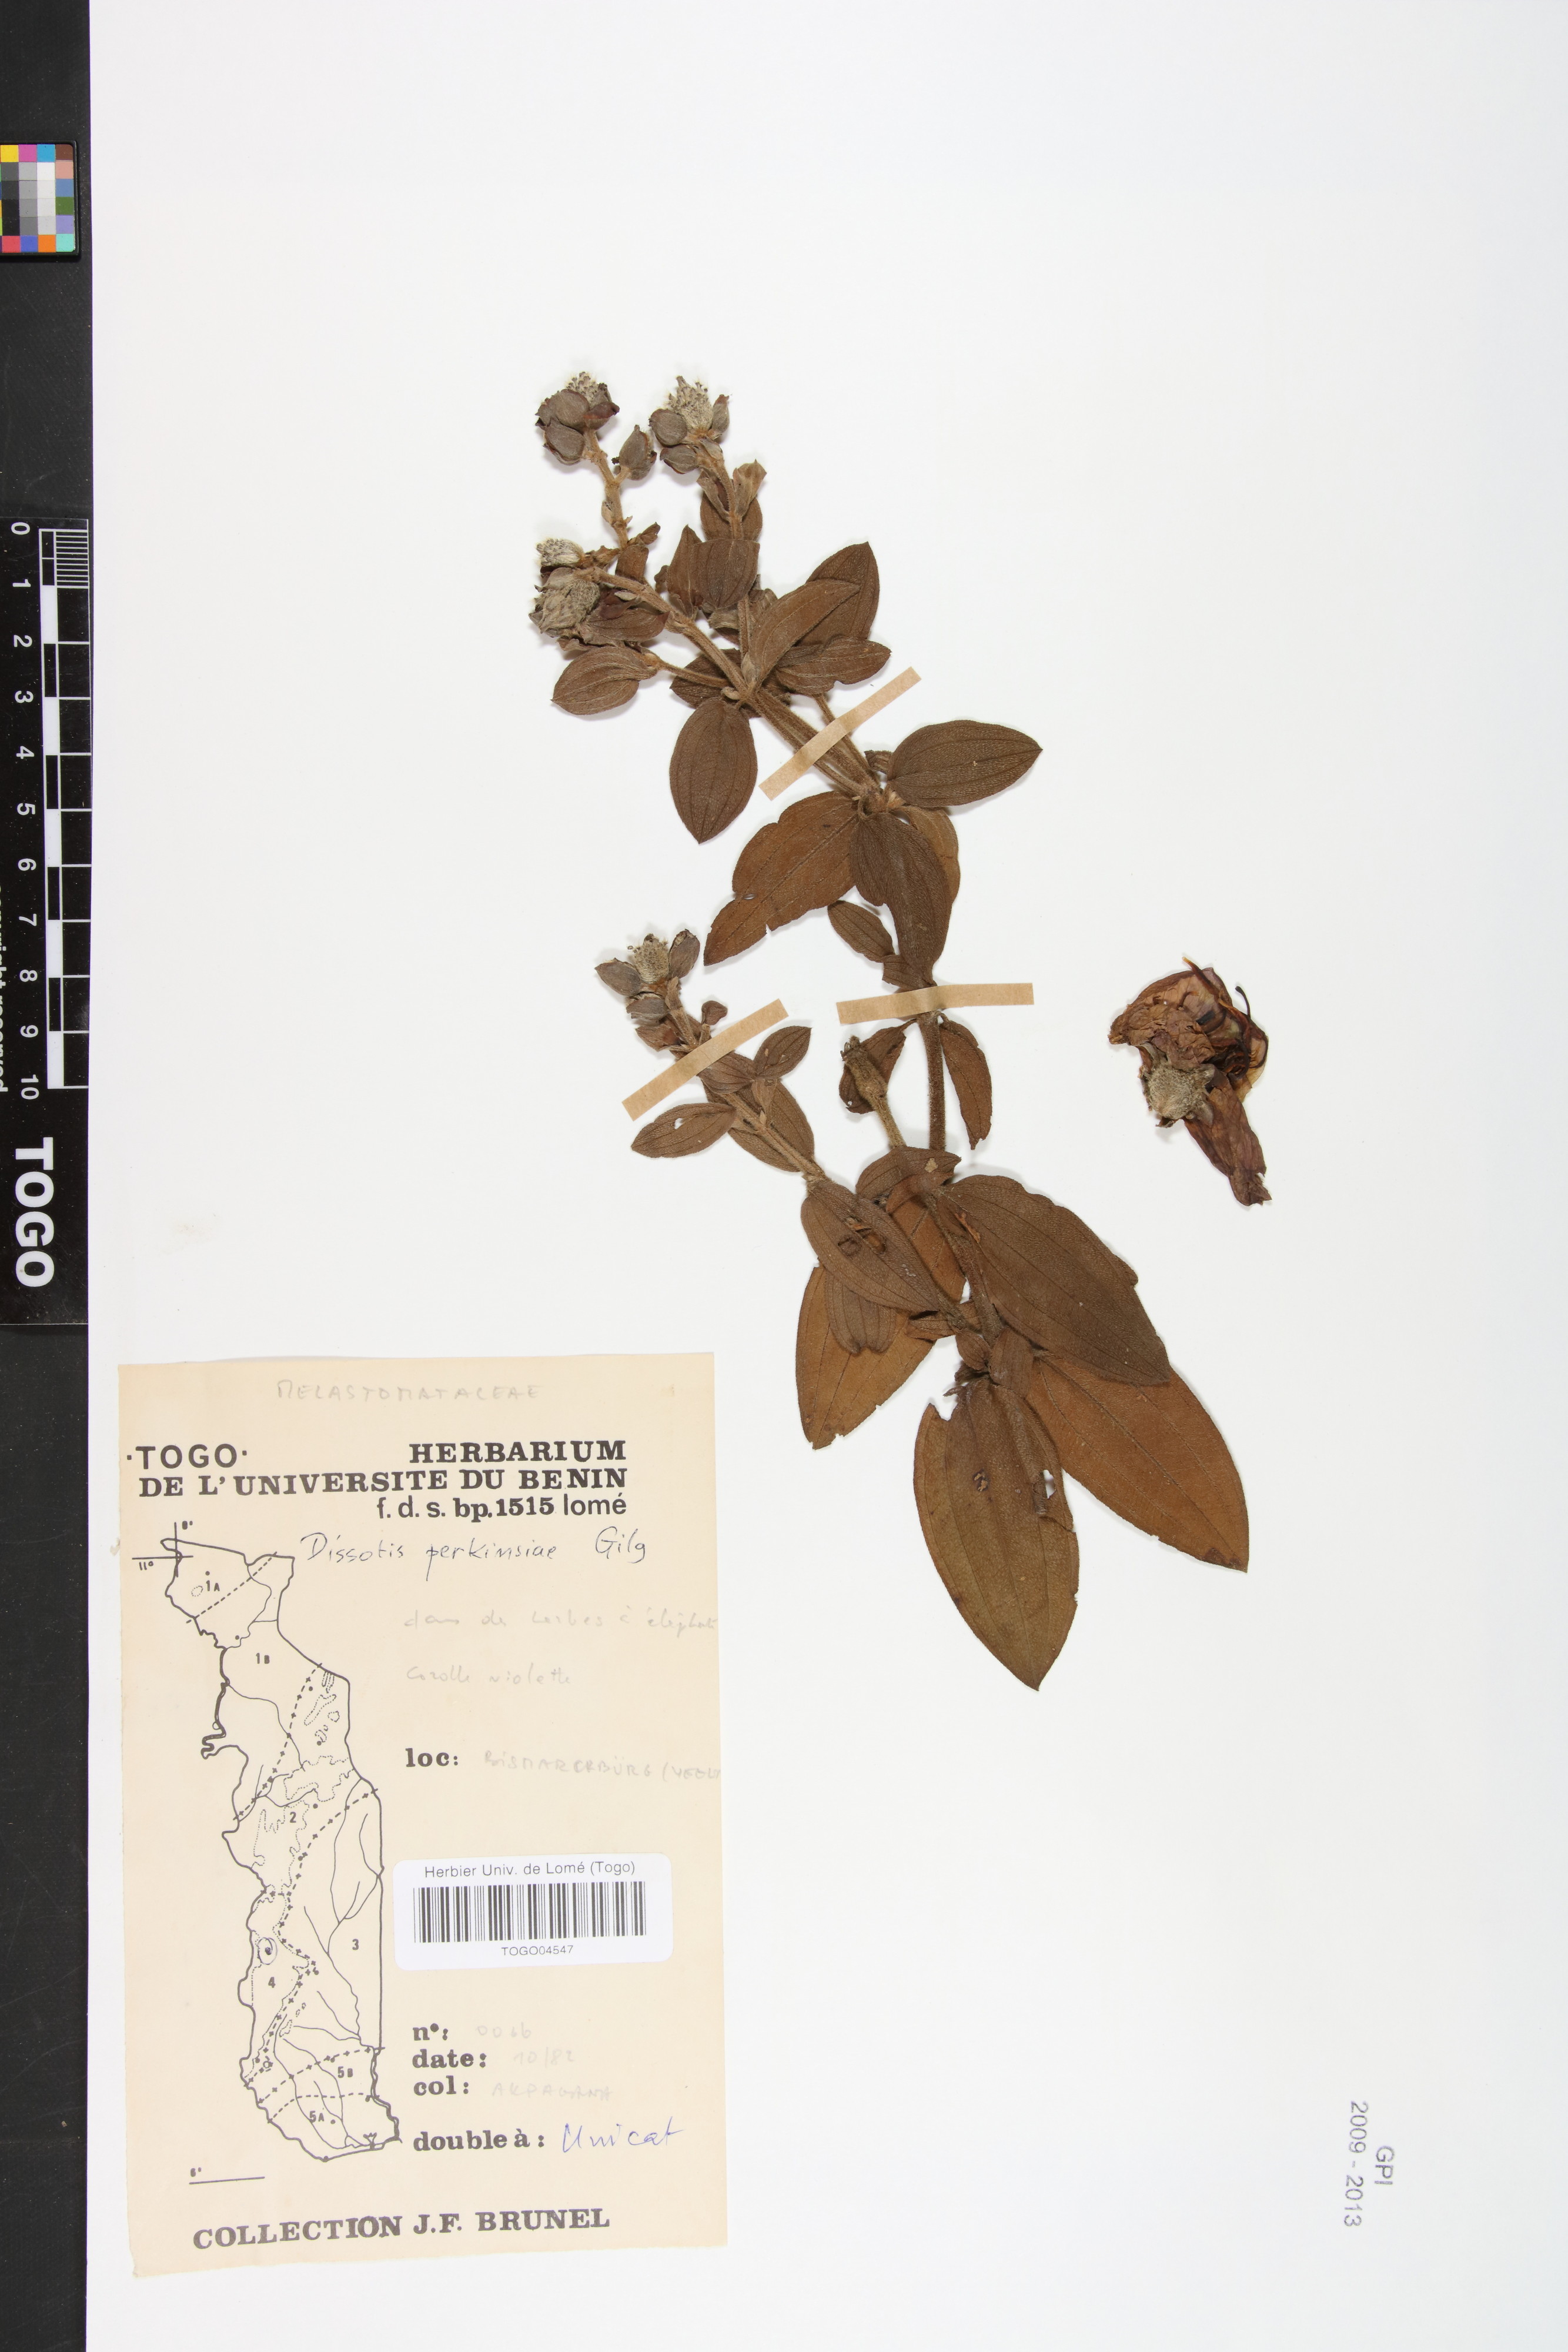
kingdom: Plantae
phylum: Tracheophyta
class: Magnoliopsida
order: Myrtales
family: Melastomataceae
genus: Feliciotis
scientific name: Feliciotis perkinsiae
